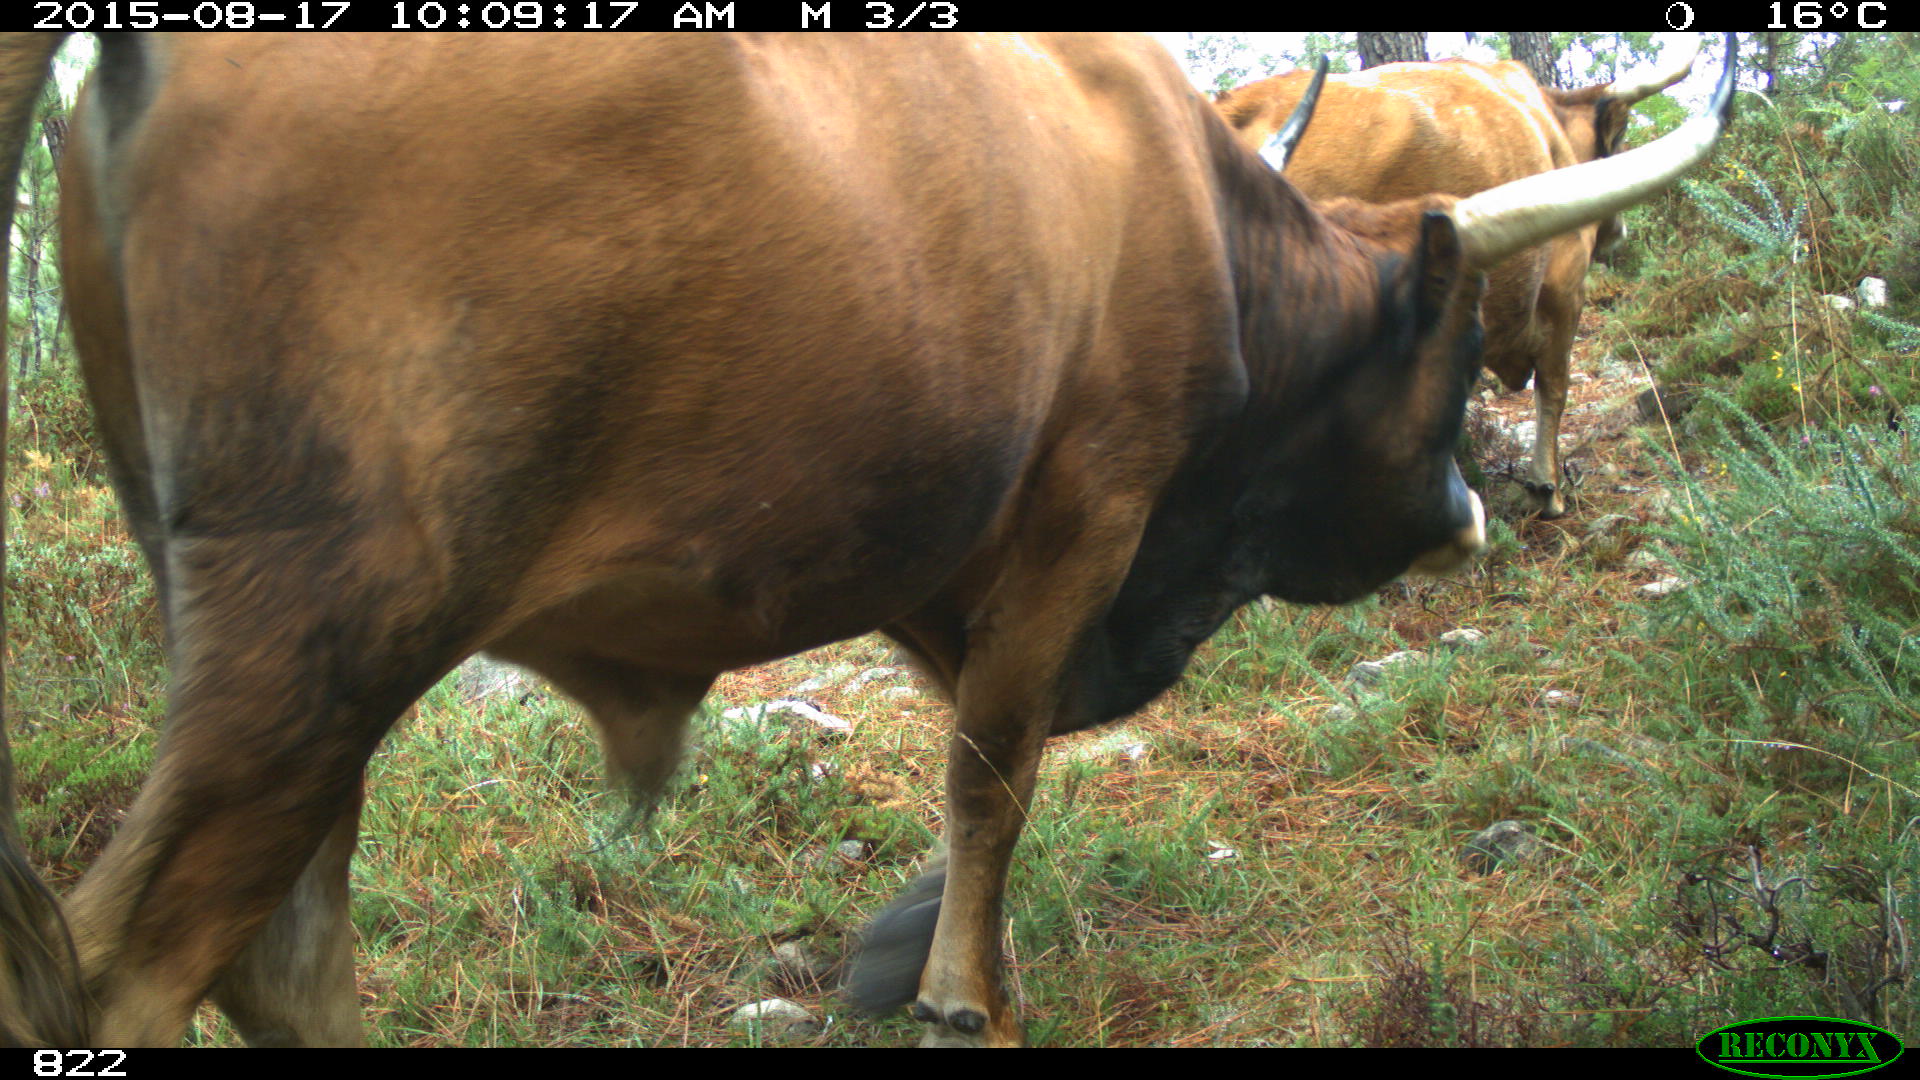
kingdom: Animalia
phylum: Chordata
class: Mammalia
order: Artiodactyla
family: Bovidae
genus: Bos
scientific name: Bos taurus
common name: Domesticated cattle
